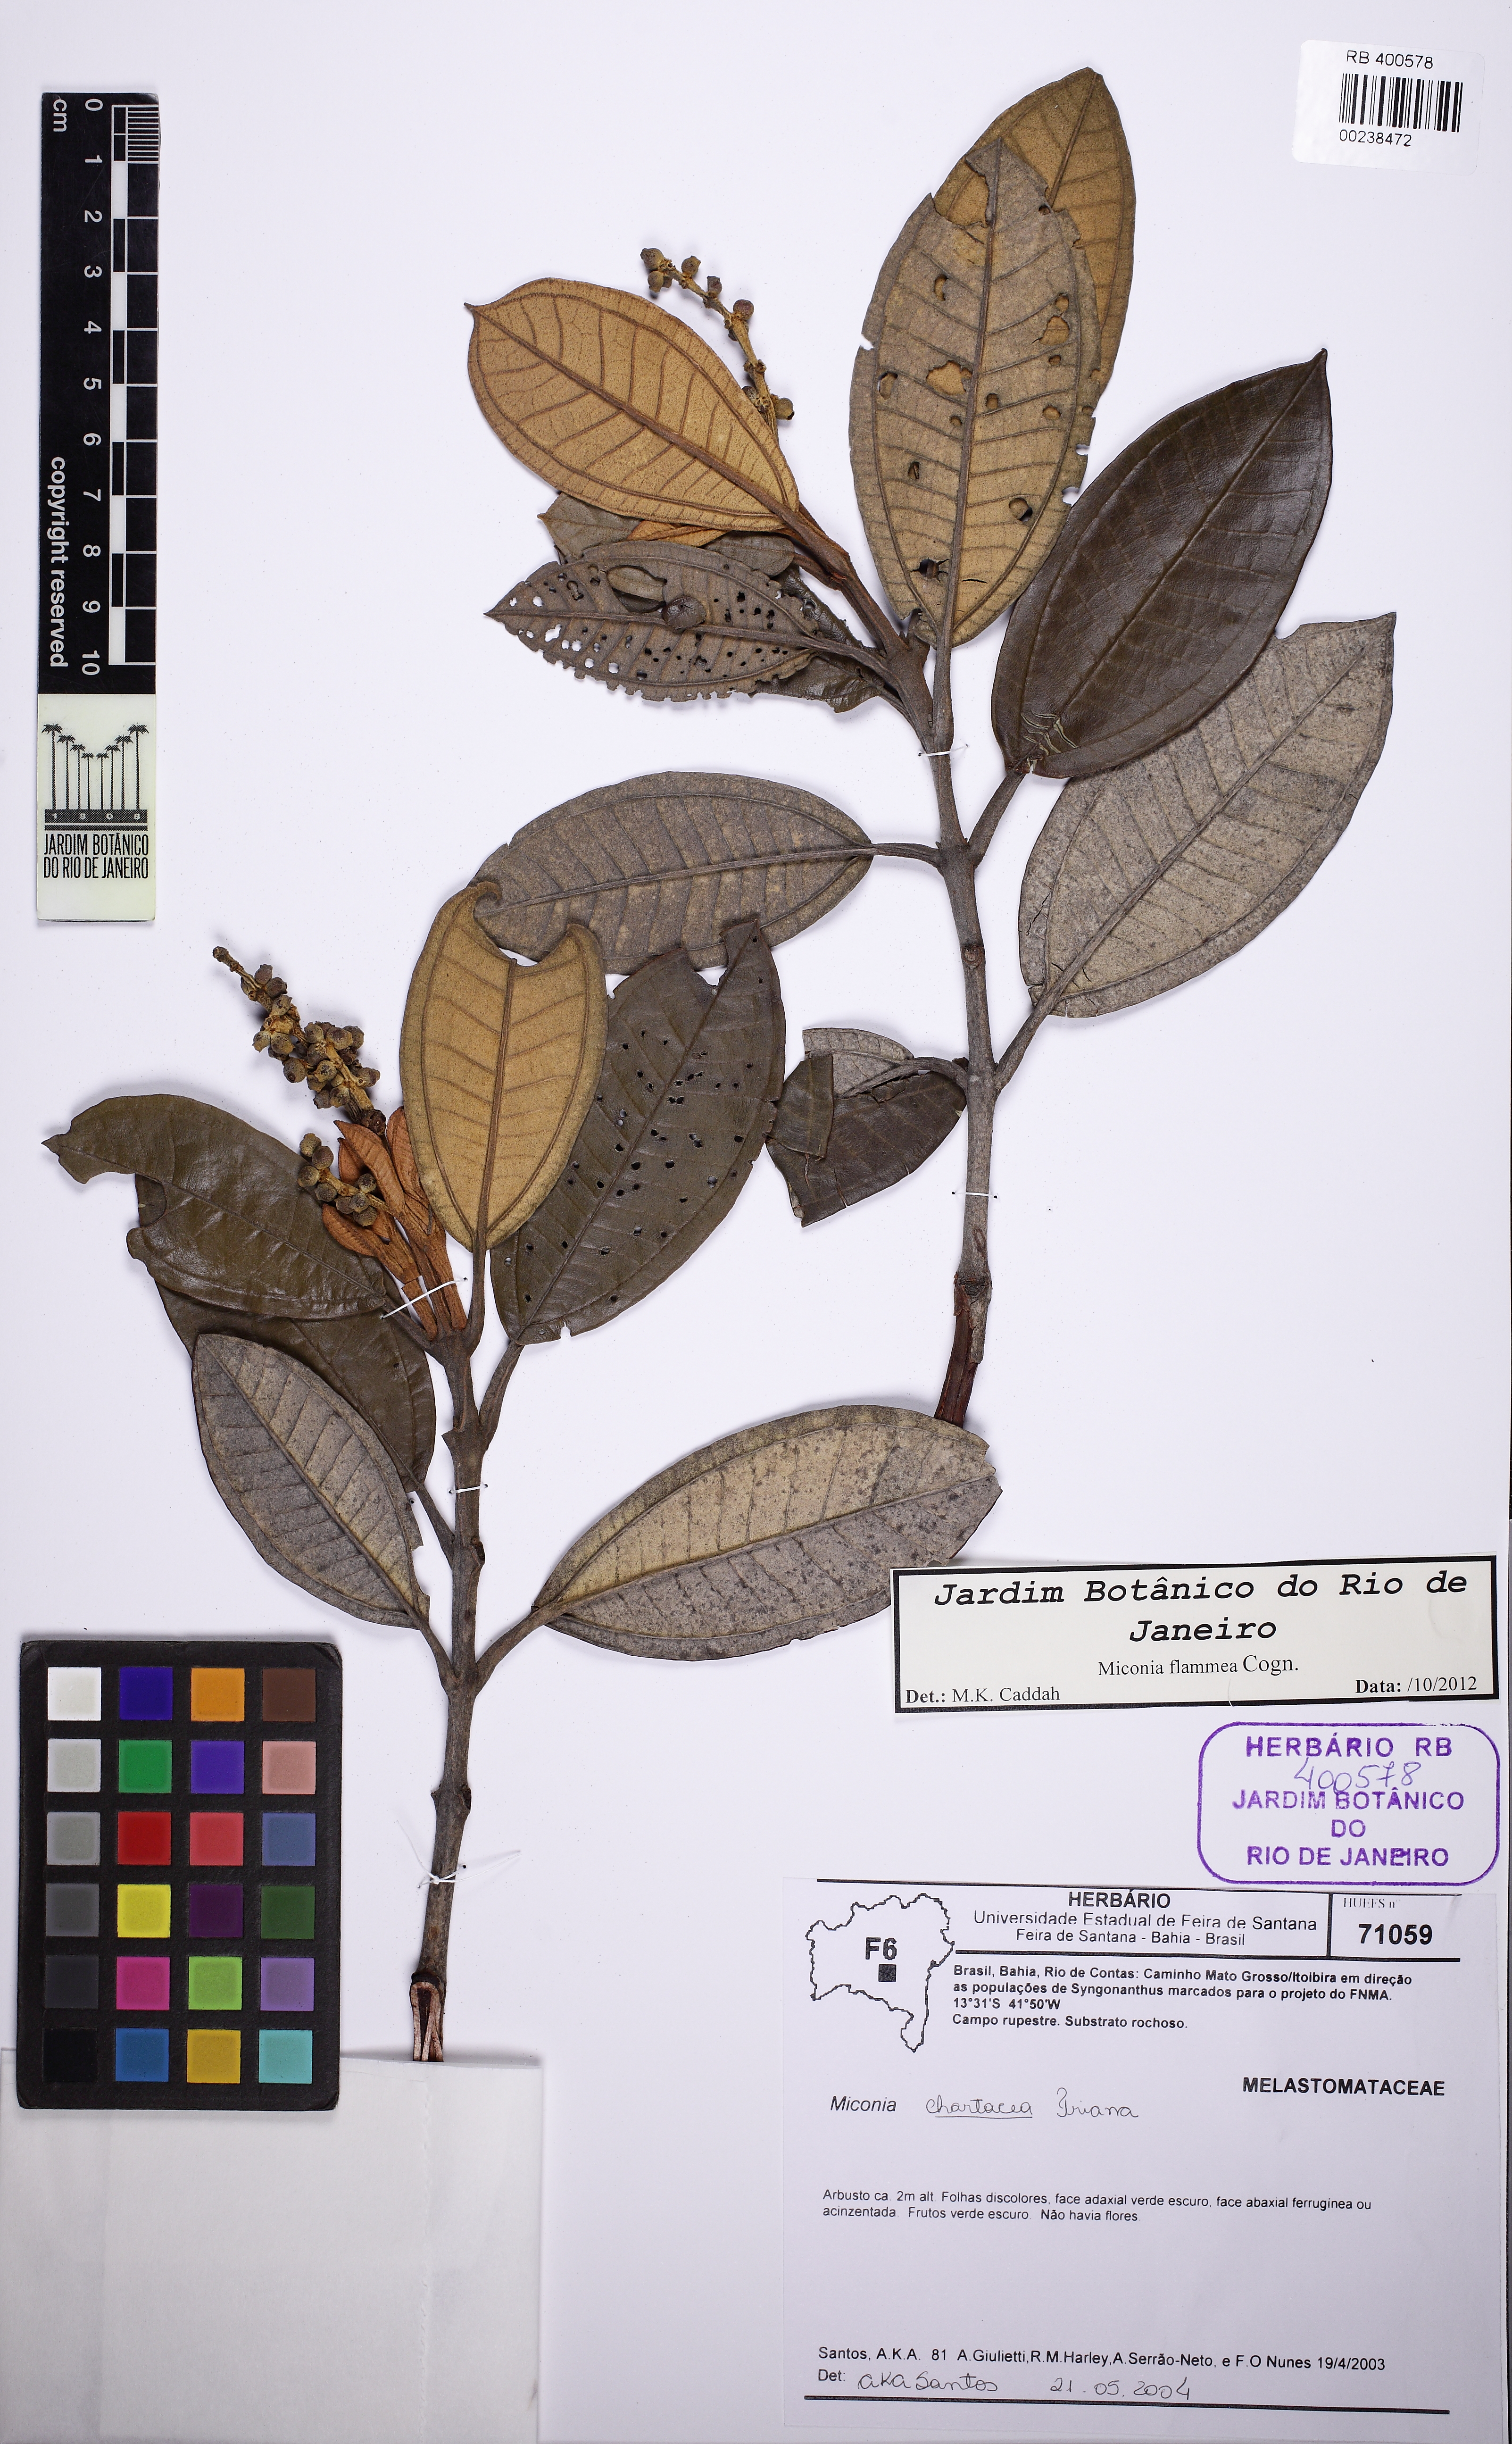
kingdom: Plantae
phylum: Tracheophyta
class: Magnoliopsida
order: Myrtales
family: Melastomataceae
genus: Miconia
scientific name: Miconia flammea
